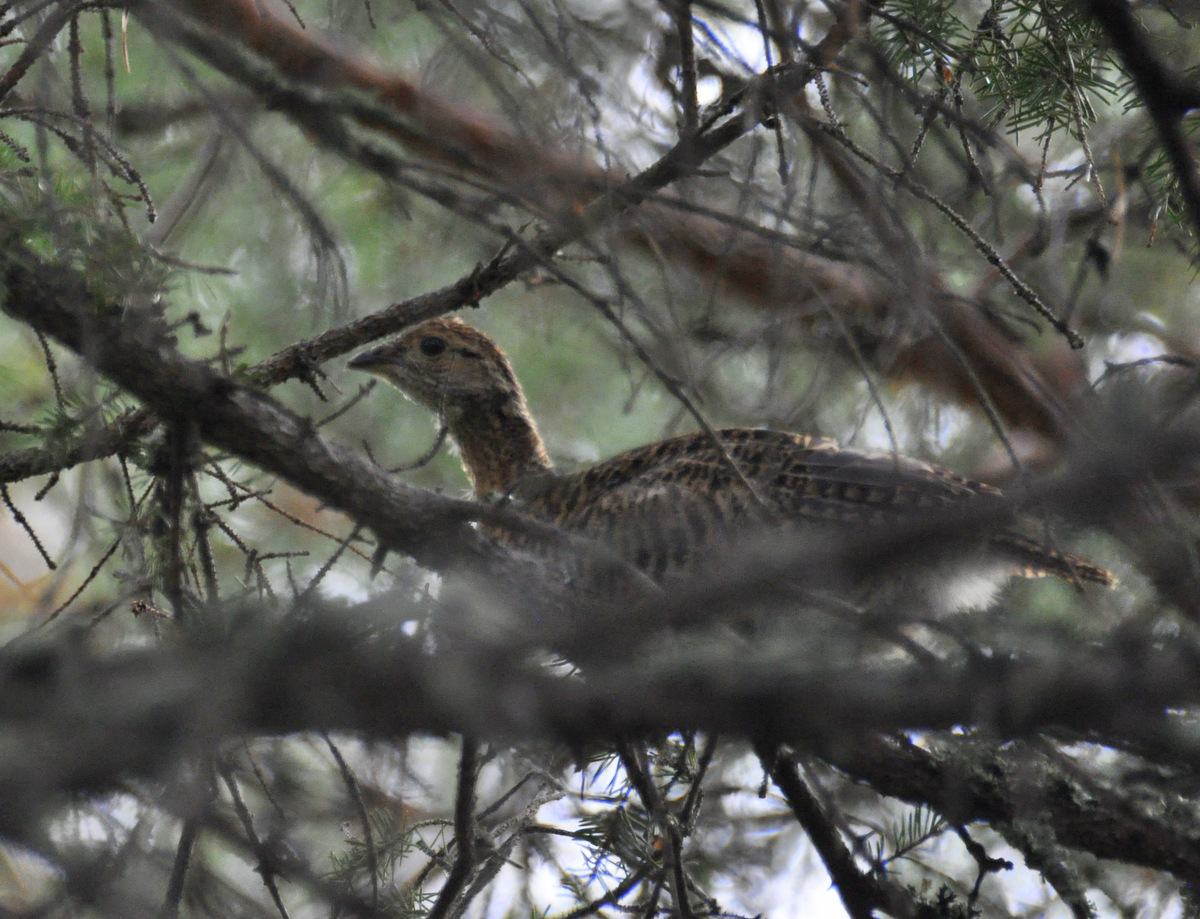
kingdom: Animalia
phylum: Chordata
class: Aves
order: Galliformes
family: Phasianidae
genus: Lyrurus
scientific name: Lyrurus tetrix
